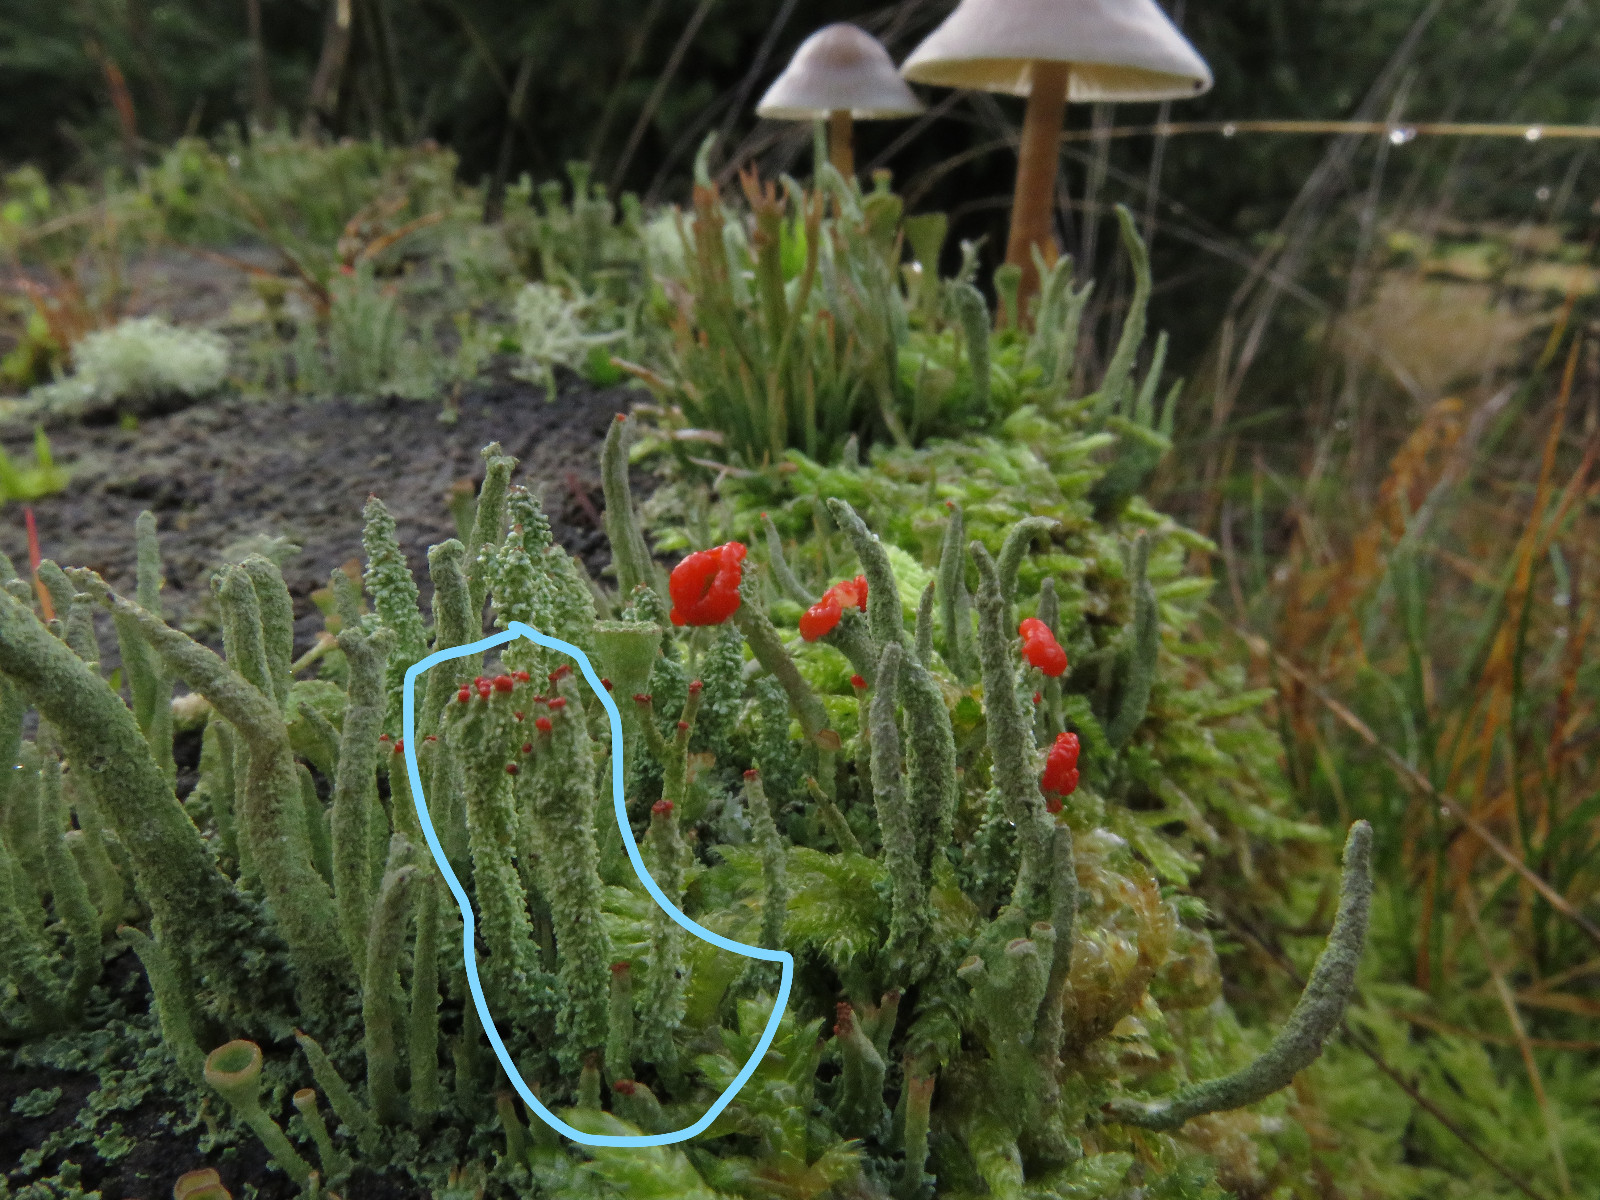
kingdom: Fungi
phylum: Ascomycota
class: Lecanoromycetes
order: Lecanorales
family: Cladoniaceae
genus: Cladonia
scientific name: Cladonia floerkeana
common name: lakrød bægerlav
